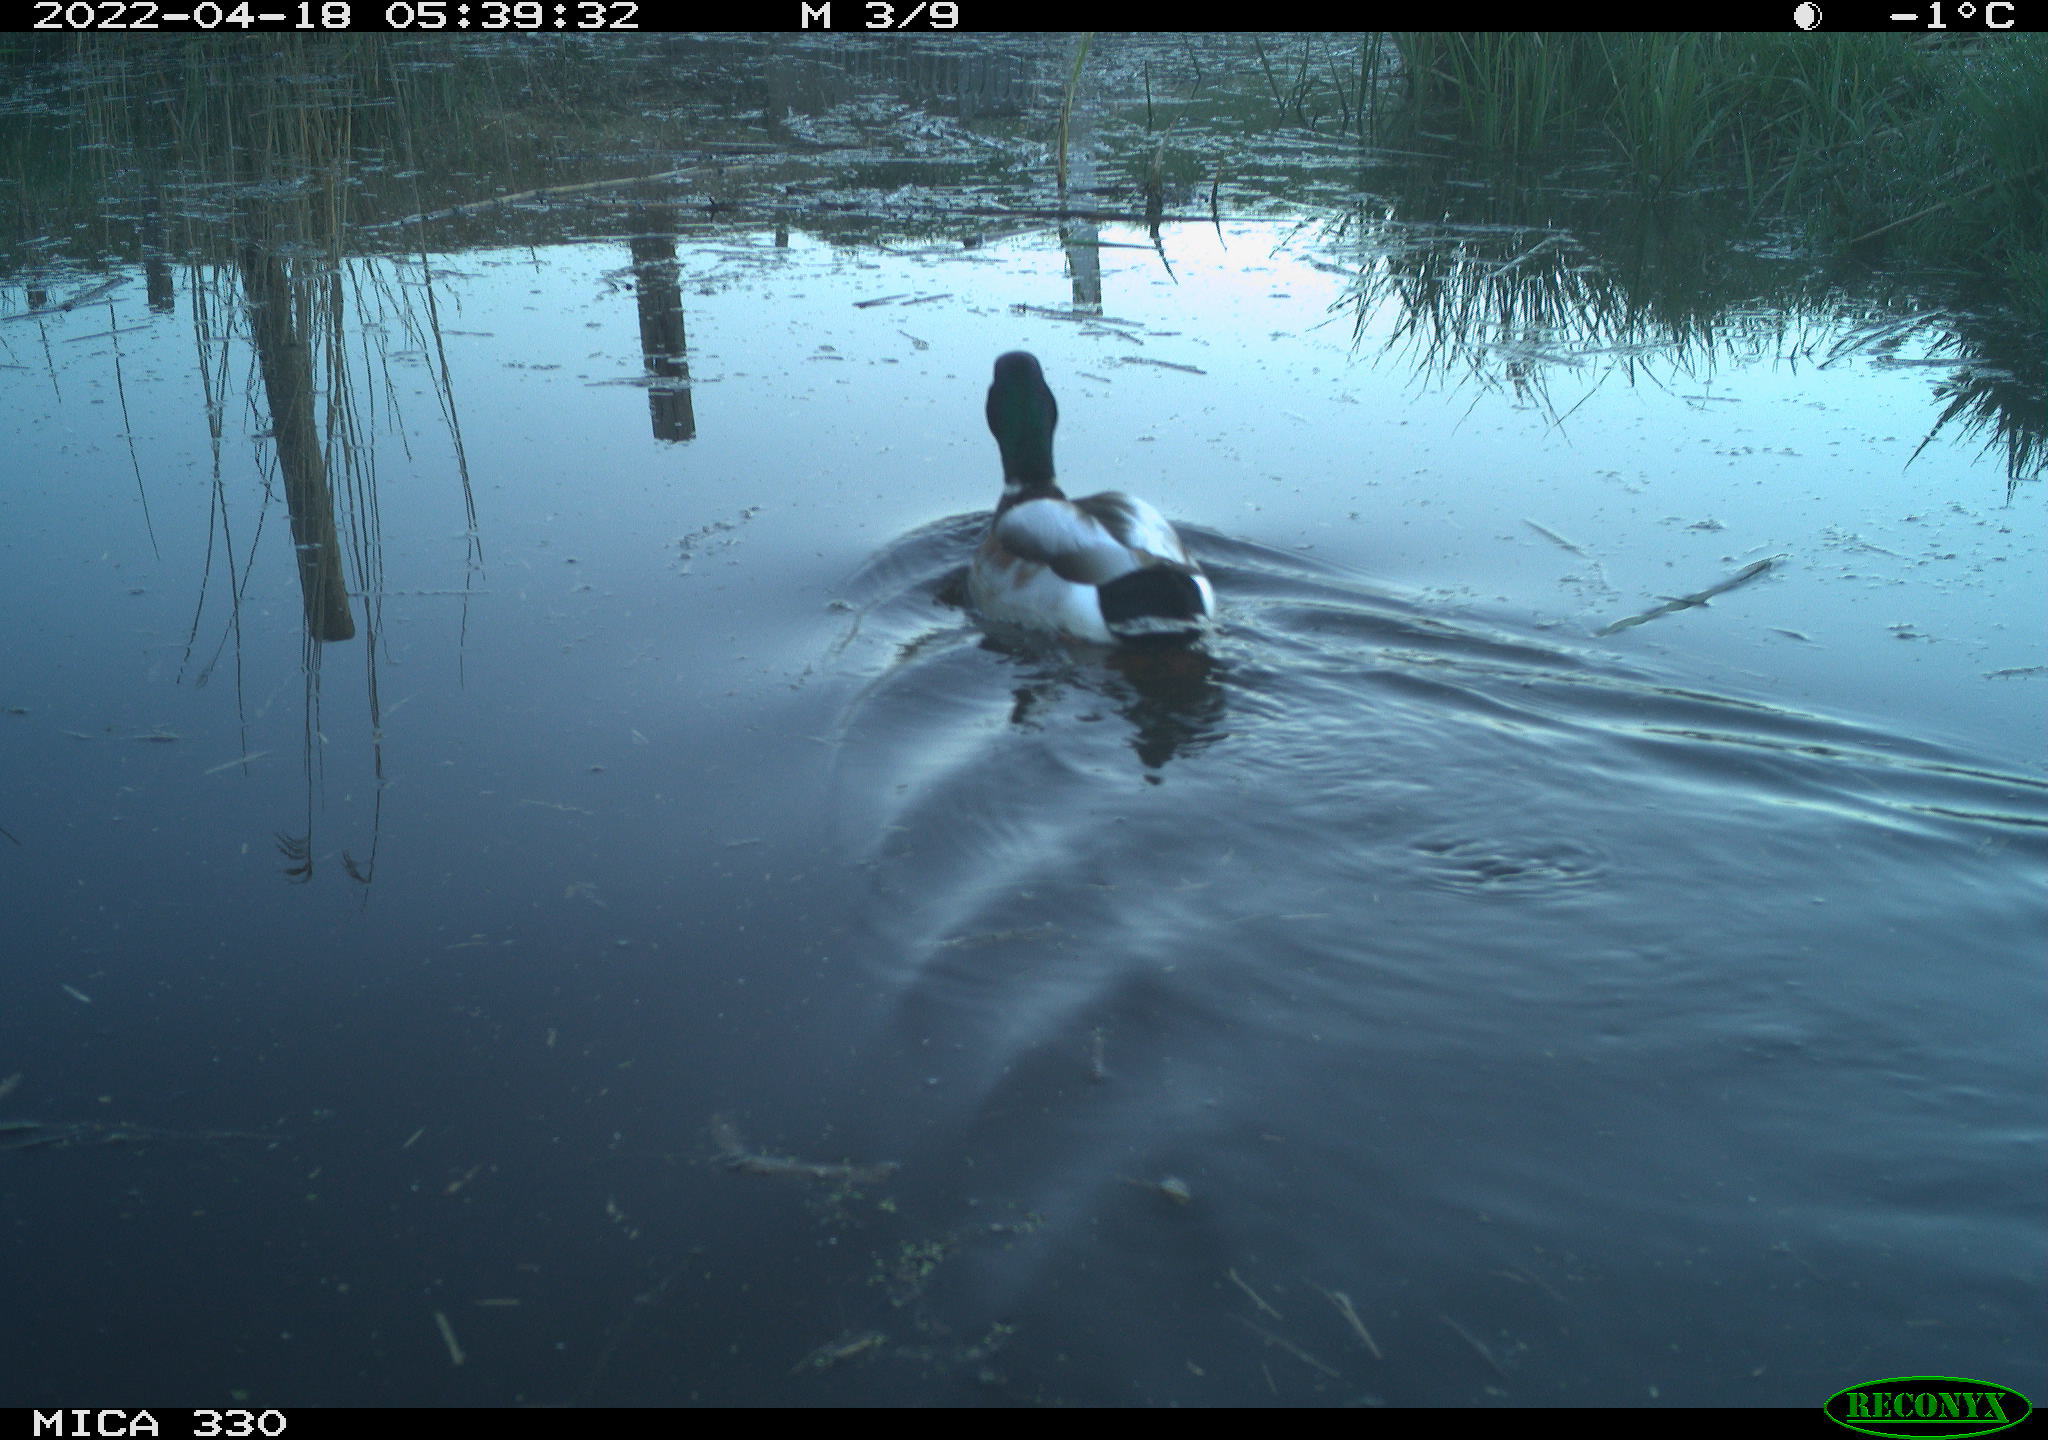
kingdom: Animalia
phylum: Chordata
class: Aves
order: Anseriformes
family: Anatidae
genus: Anas
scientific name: Anas platyrhynchos
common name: Mallard
